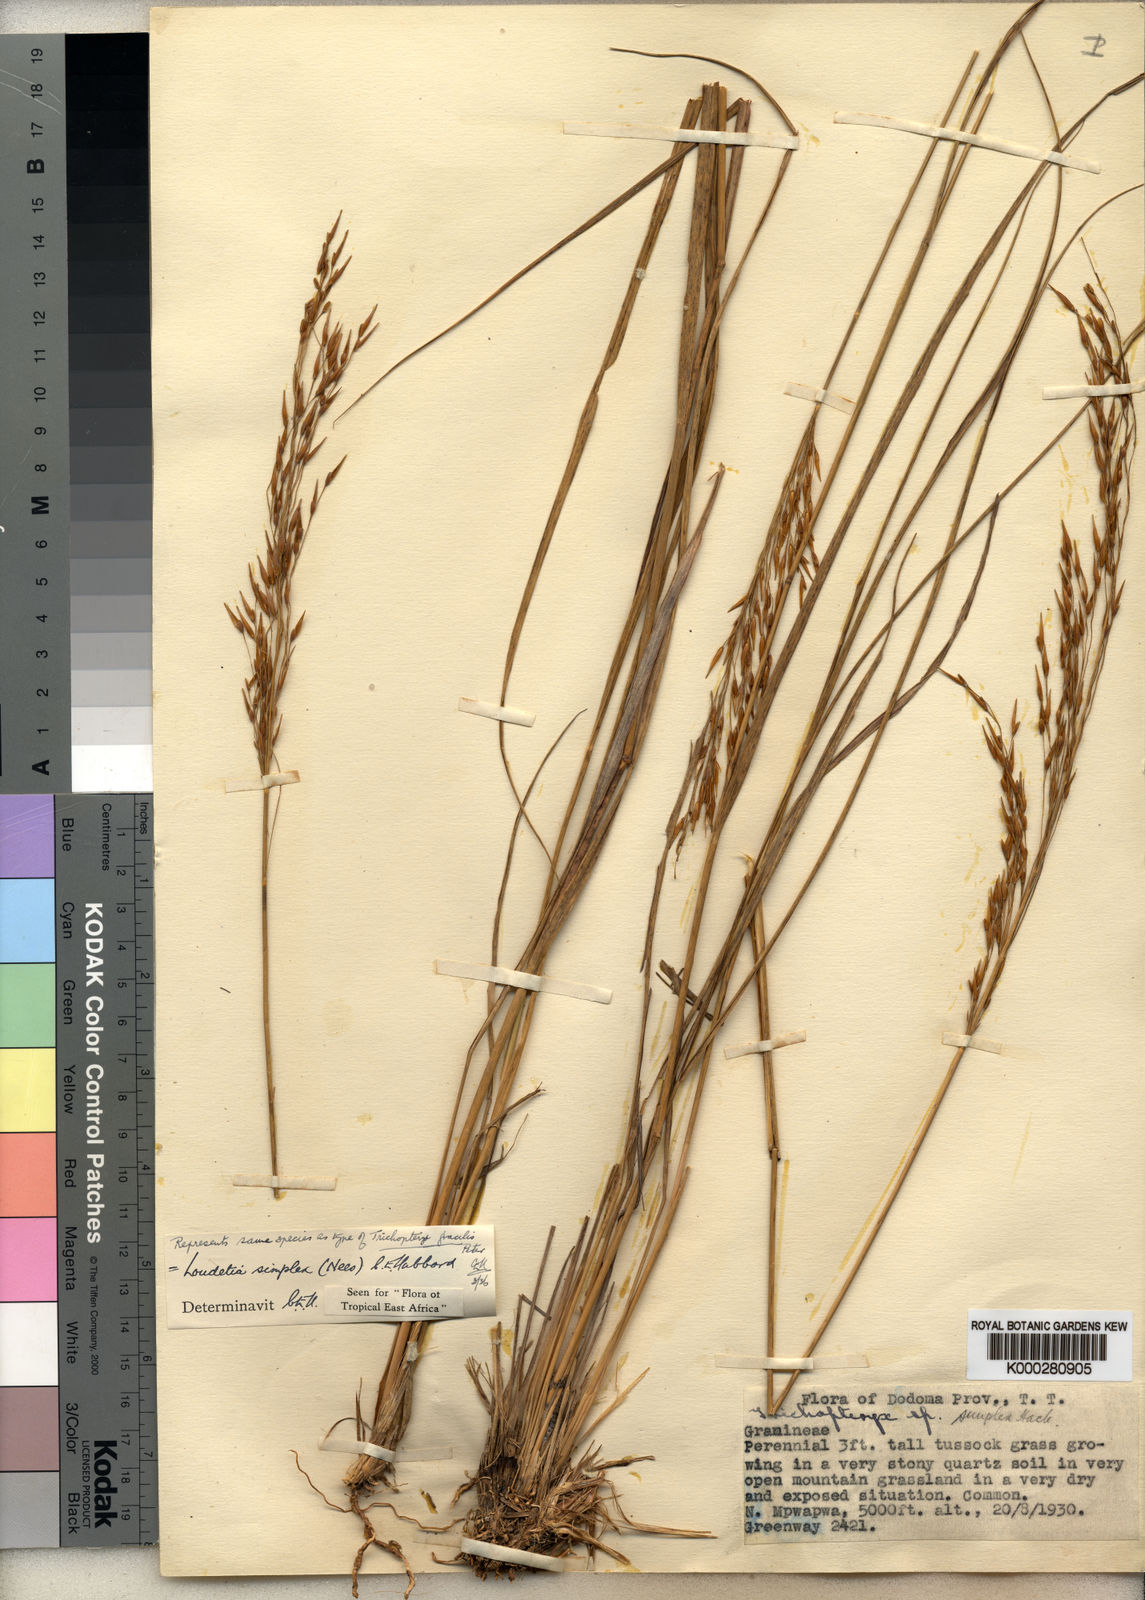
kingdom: Plantae
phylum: Tracheophyta
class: Liliopsida
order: Poales
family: Poaceae
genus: Loudetia
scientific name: Loudetia simplex
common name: Common russet grass
